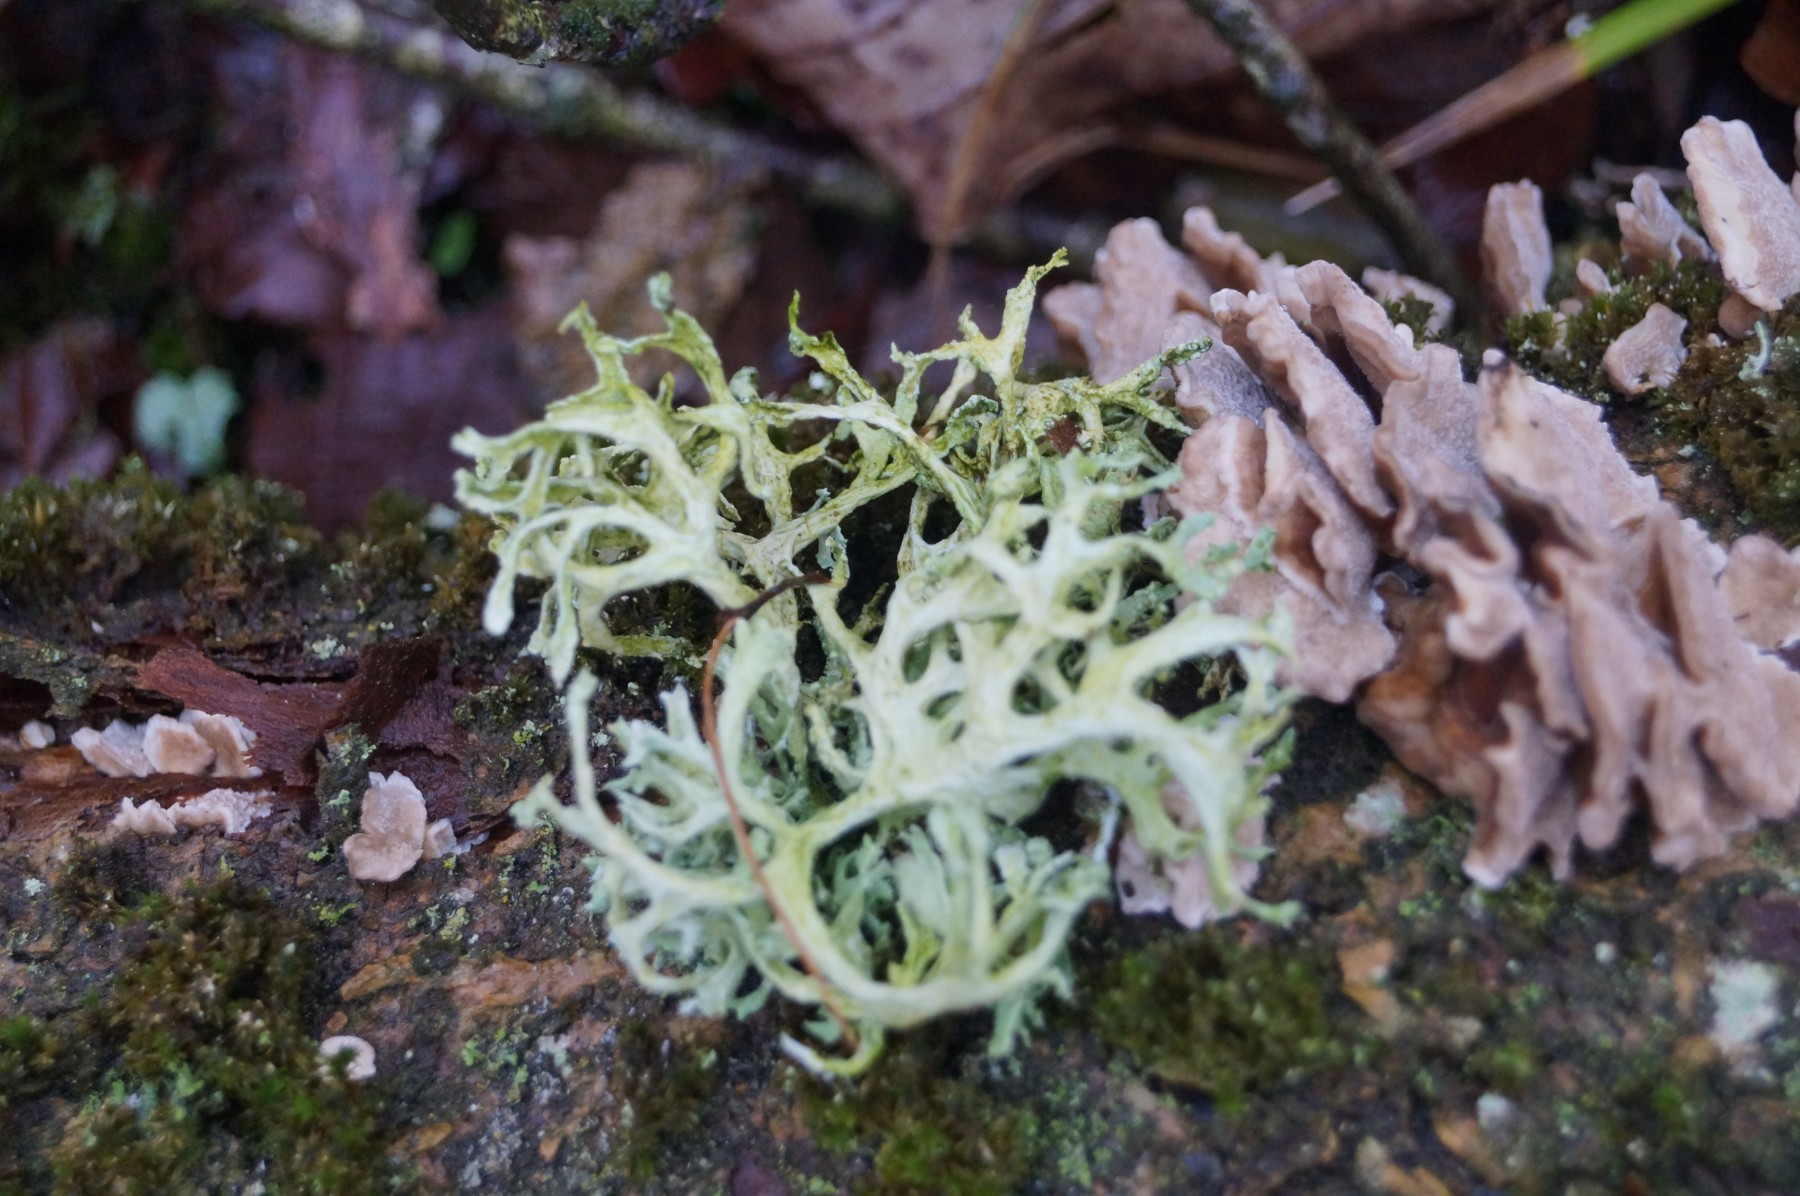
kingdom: Fungi
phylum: Ascomycota
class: Lecanoromycetes
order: Lecanorales
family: Parmeliaceae
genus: Evernia
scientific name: Evernia prunastri
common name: almindelig slåenlav
